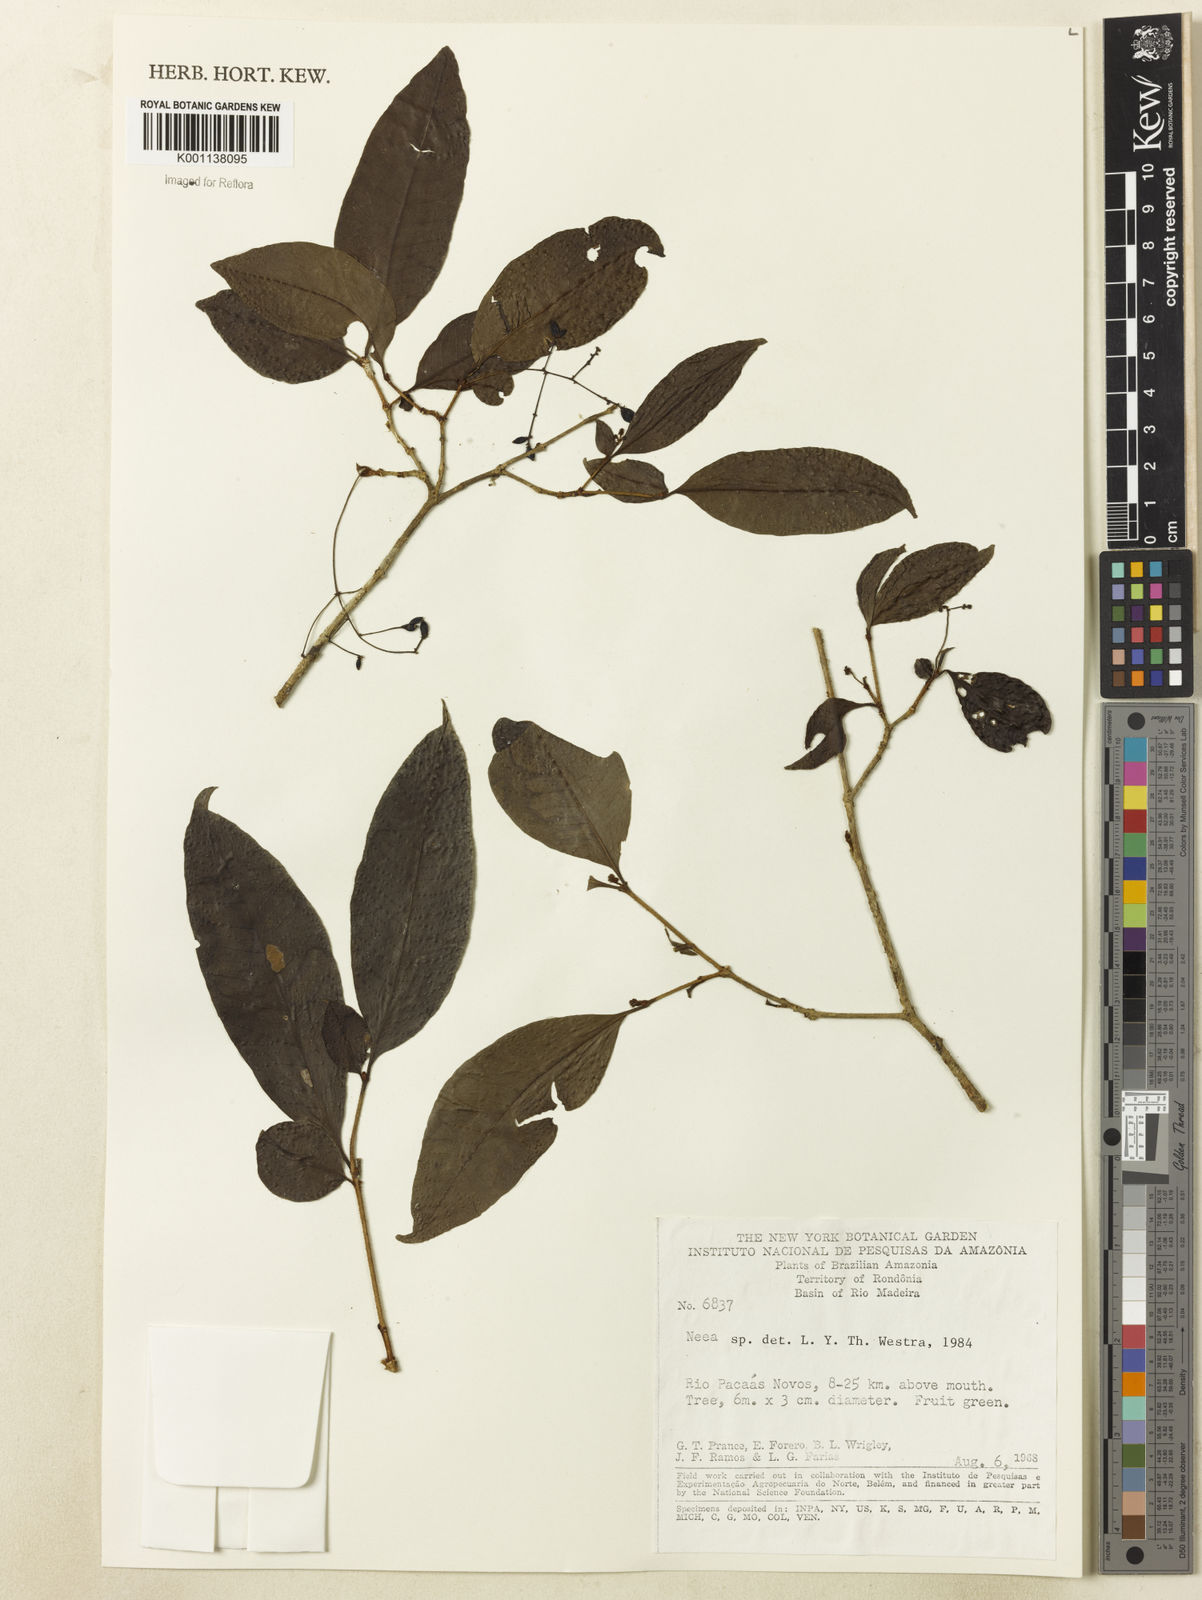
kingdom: Plantae
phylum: Tracheophyta
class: Magnoliopsida
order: Caryophyllales
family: Nyctaginaceae
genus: Neea
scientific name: Neea
